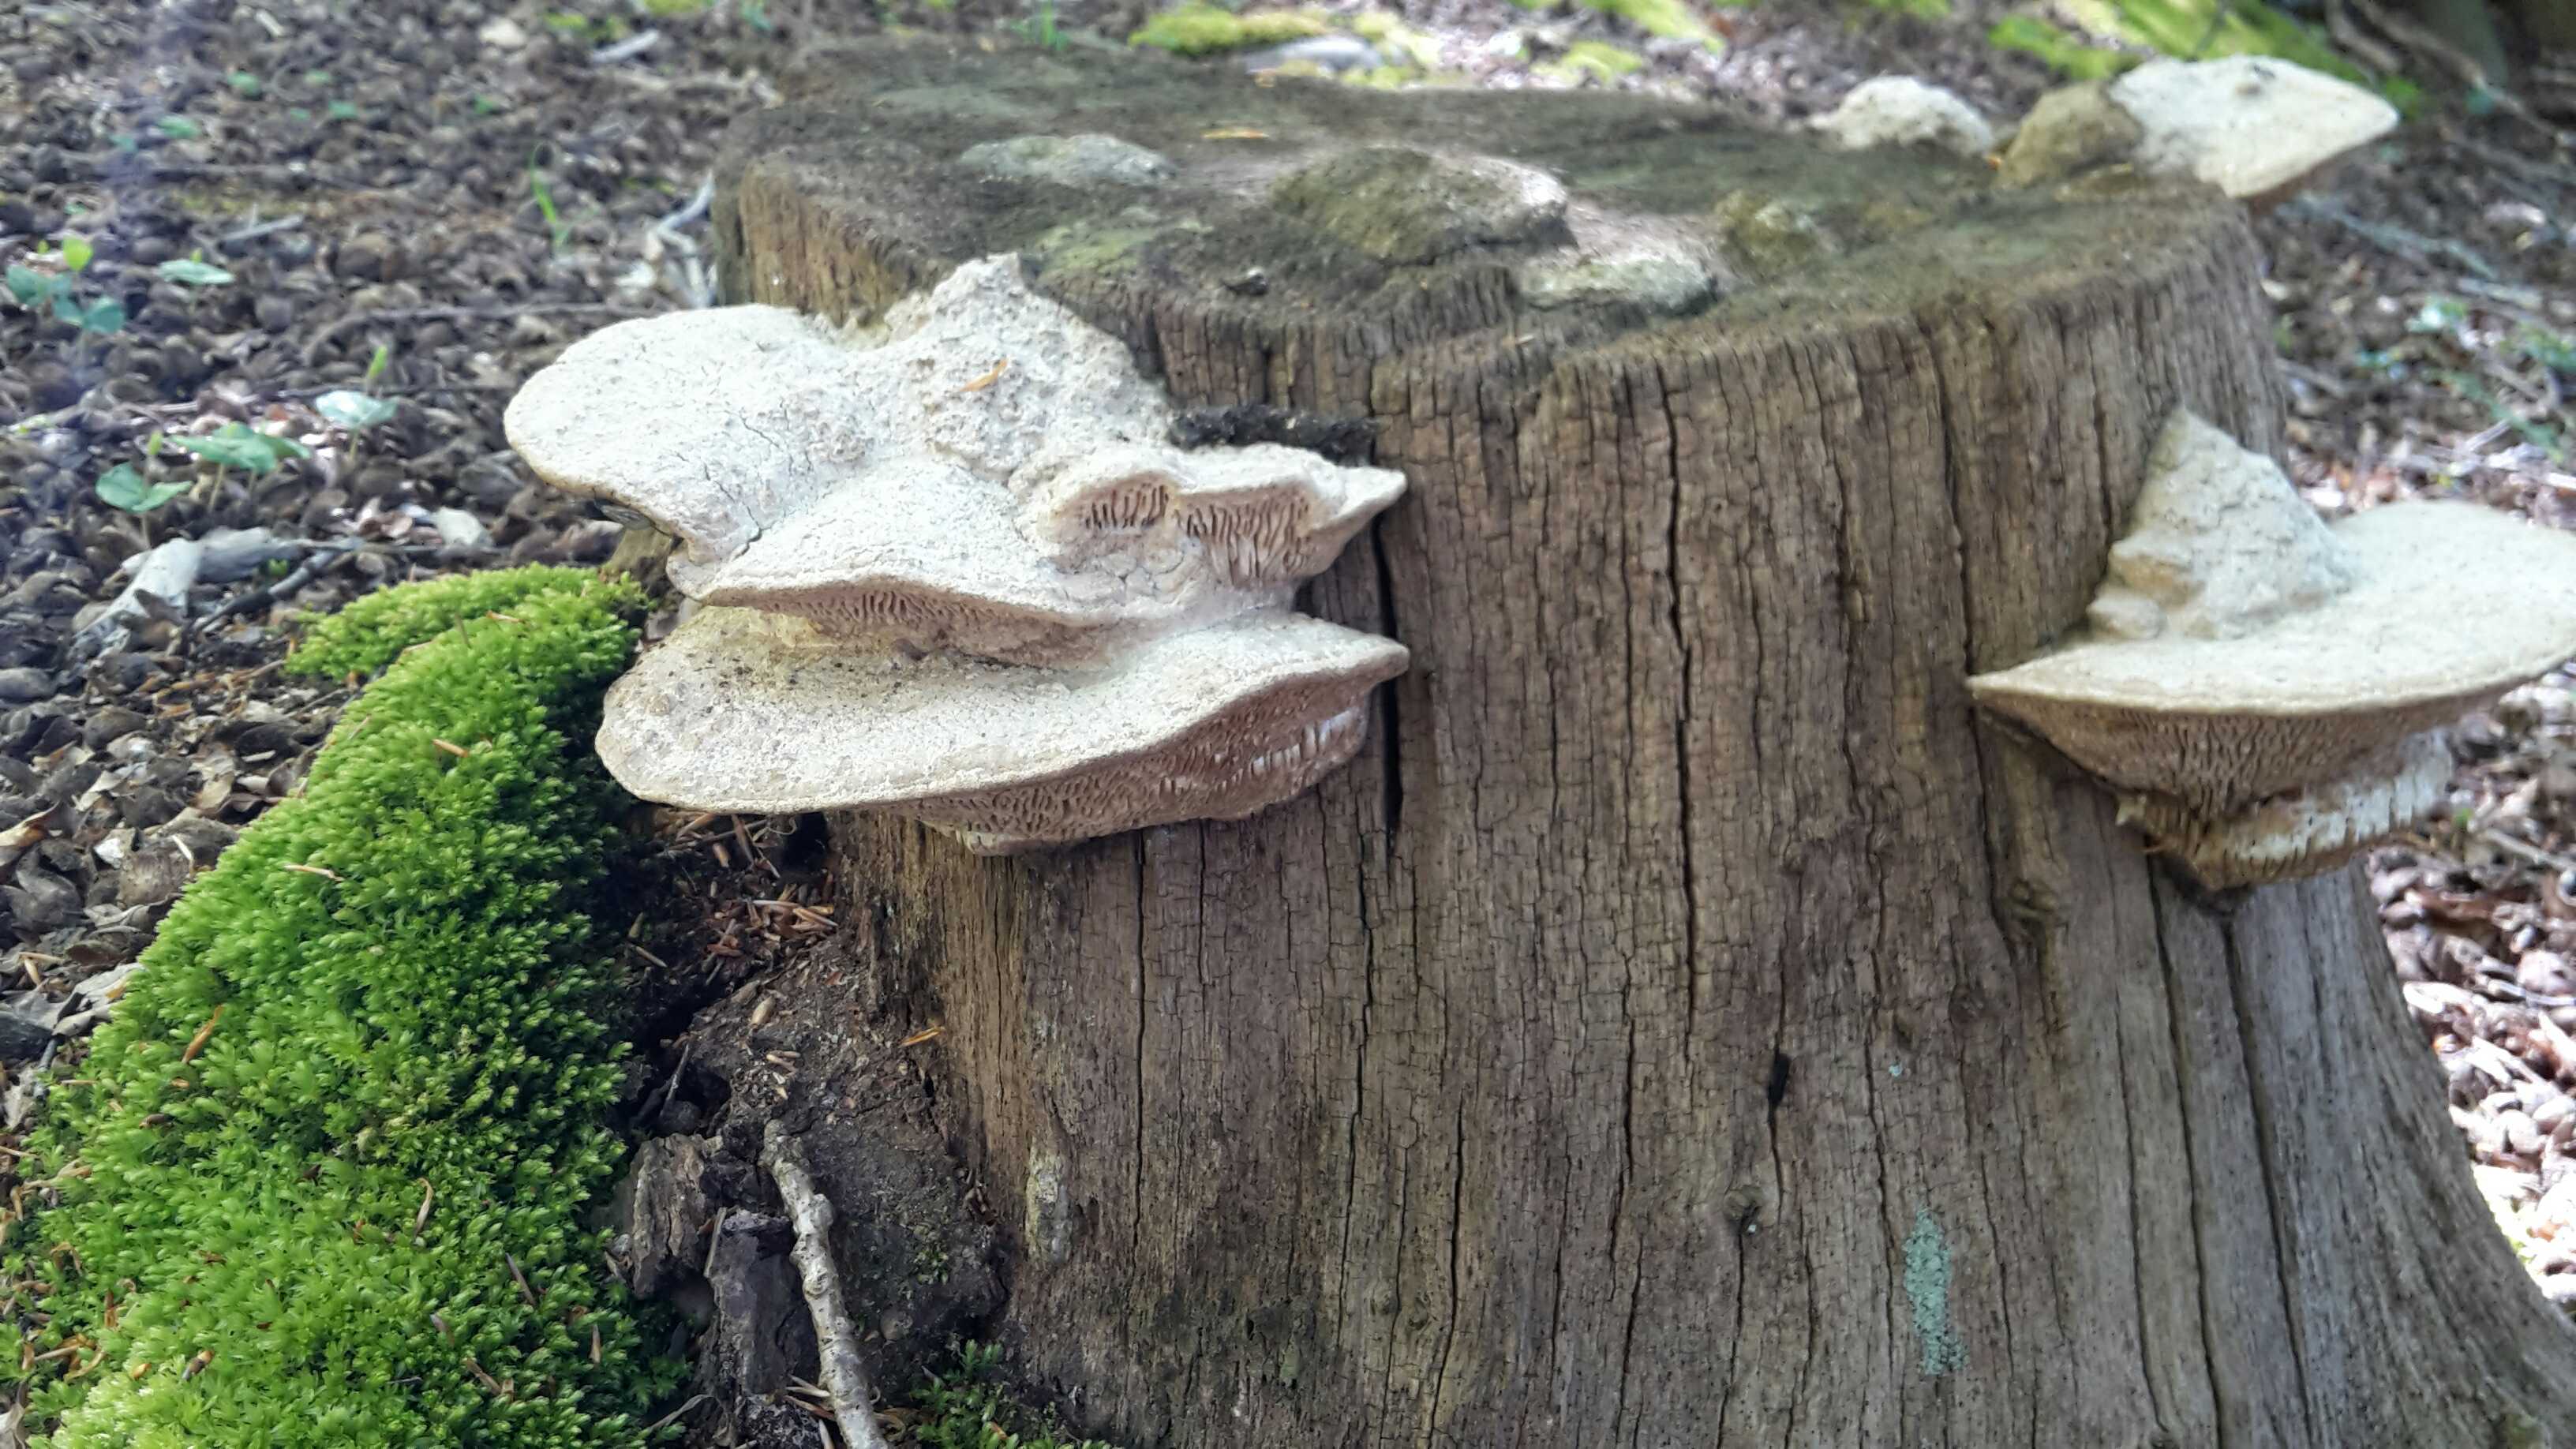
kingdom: Fungi
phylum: Basidiomycota
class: Agaricomycetes
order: Polyporales
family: Fomitopsidaceae
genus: Daedalea
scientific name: Daedalea quercina
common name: ege-labyrintsvamp
